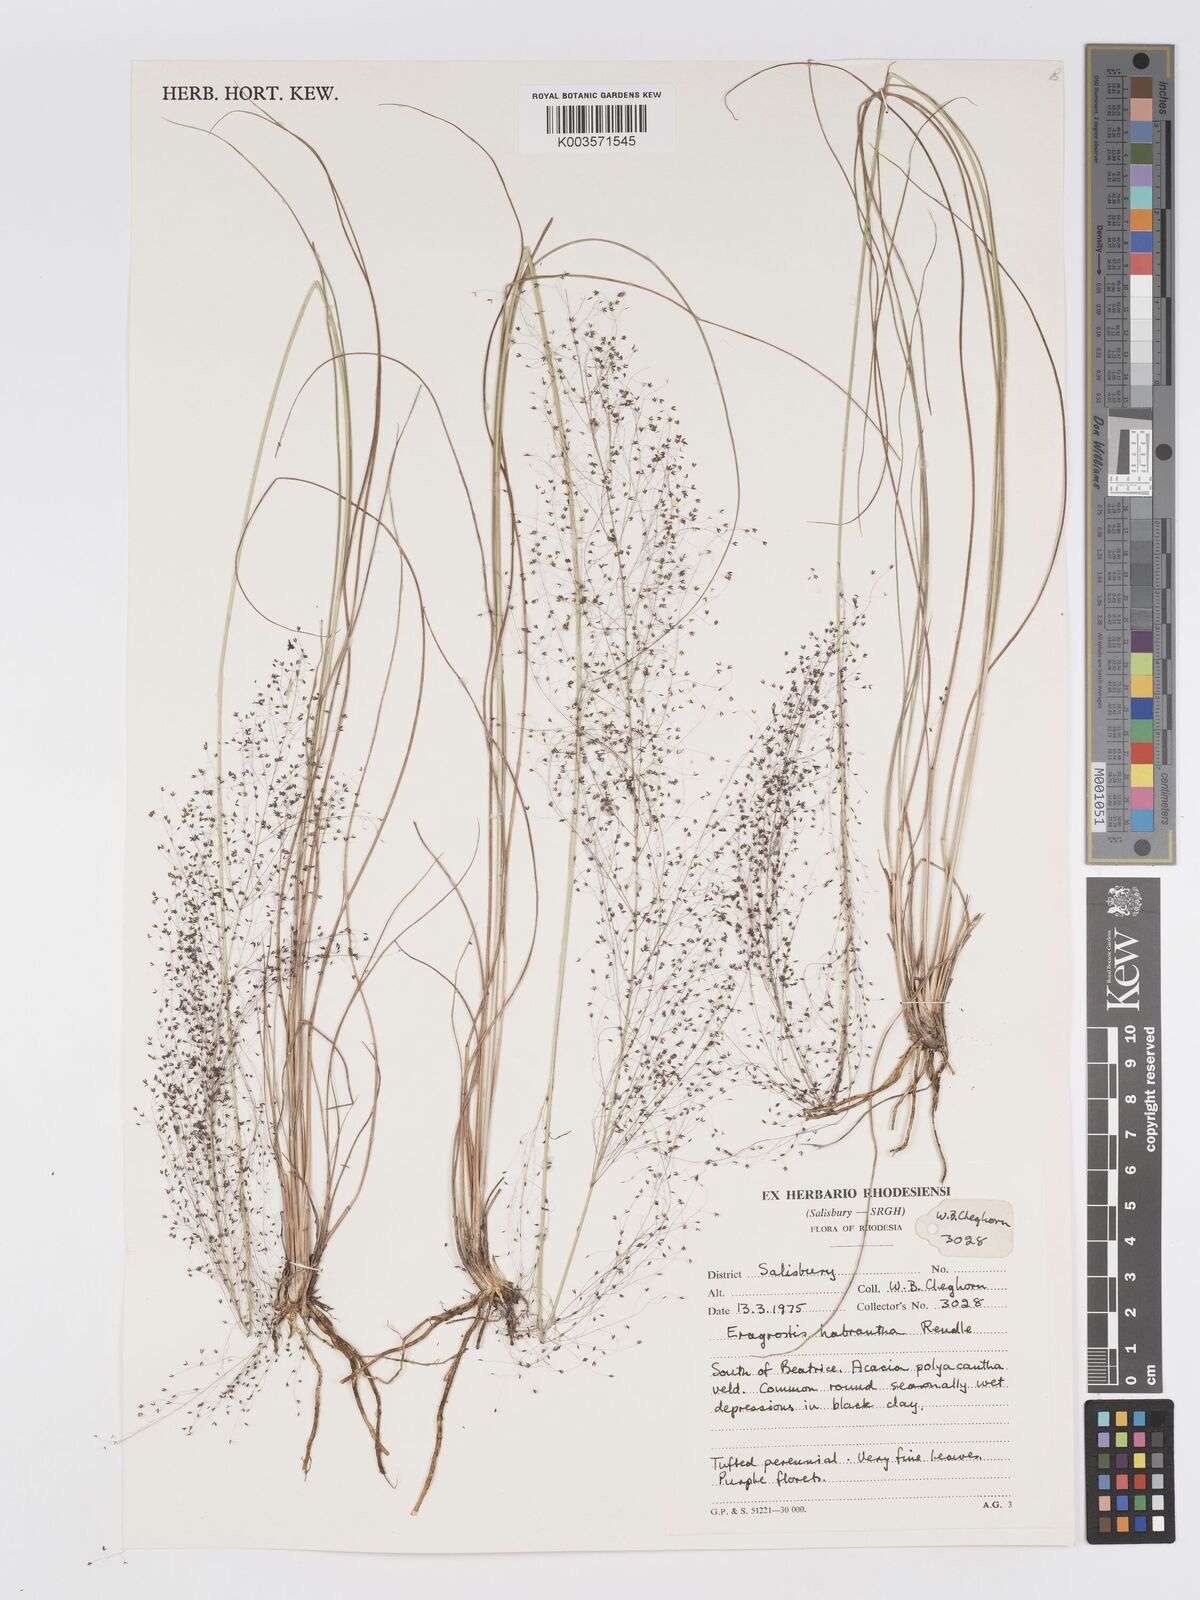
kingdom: Plantae
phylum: Tracheophyta
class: Liliopsida
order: Poales
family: Poaceae
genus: Eragrostis
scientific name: Eragrostis habrantha
